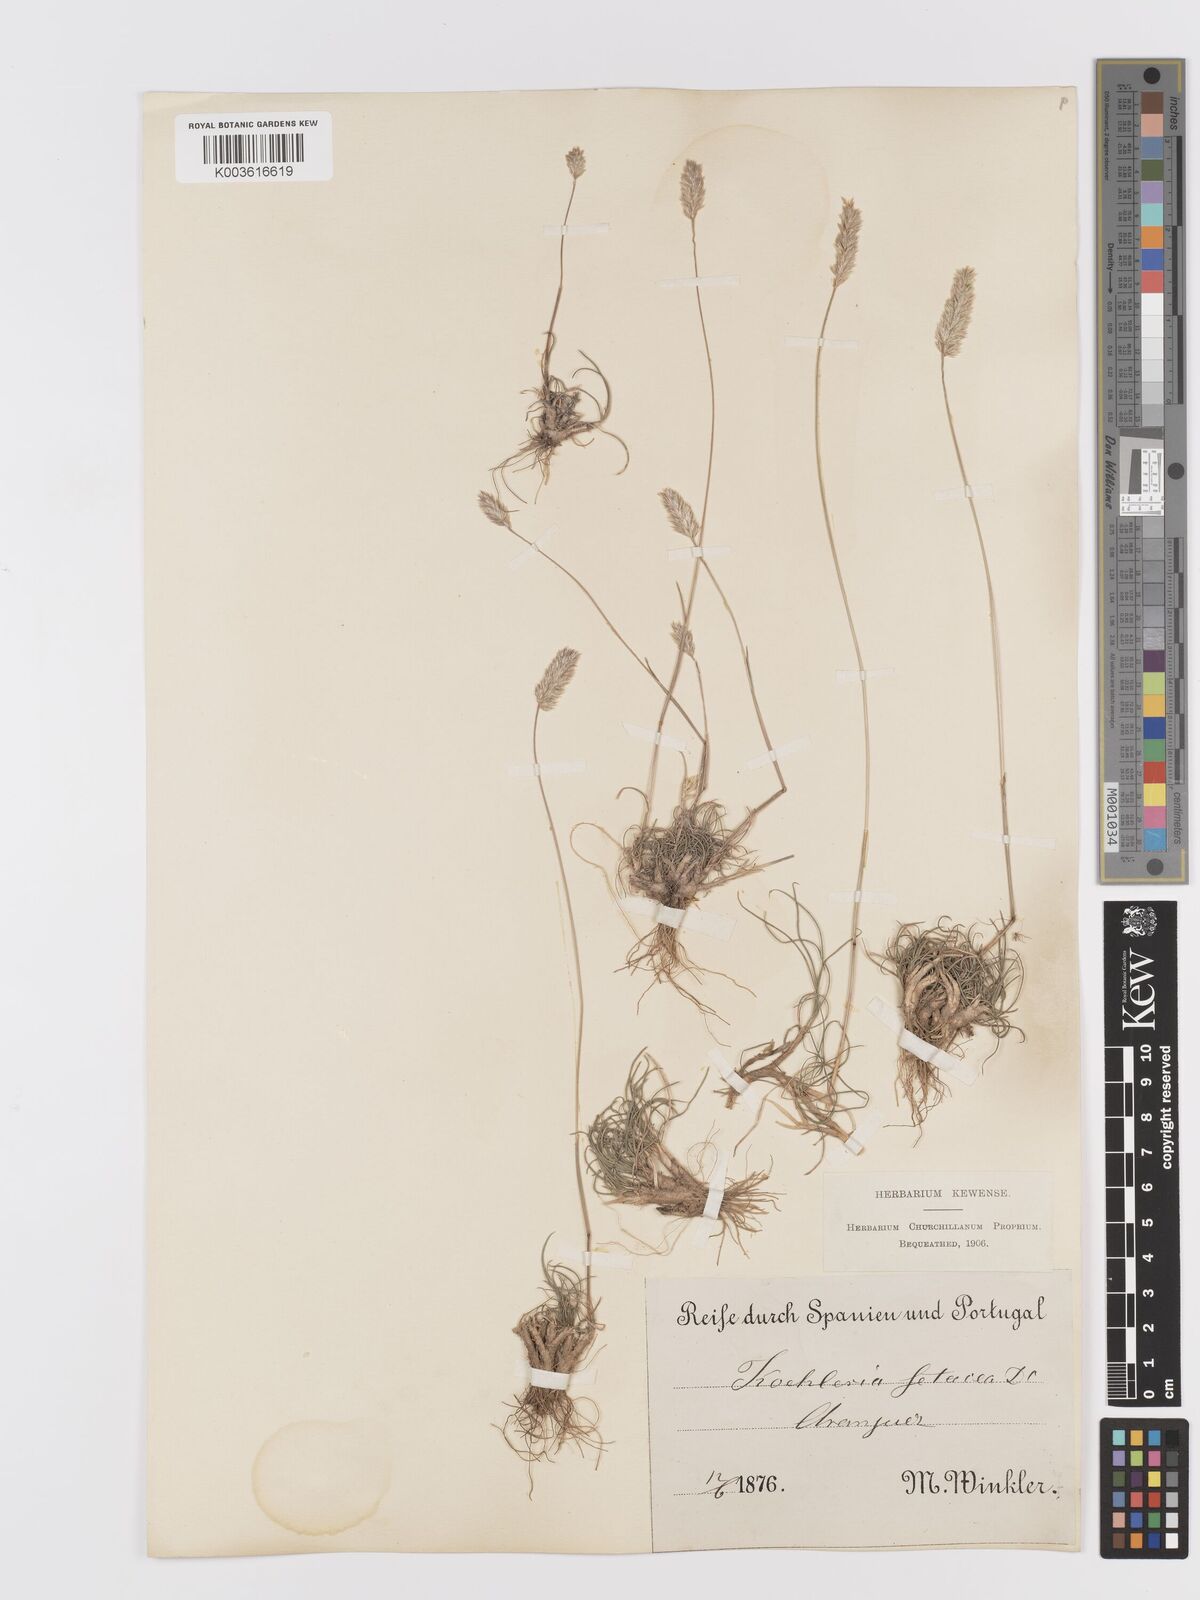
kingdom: Plantae
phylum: Tracheophyta
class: Liliopsida
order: Poales
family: Poaceae
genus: Koeleria
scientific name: Koeleria vallesiana
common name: Somerset hair-grass
